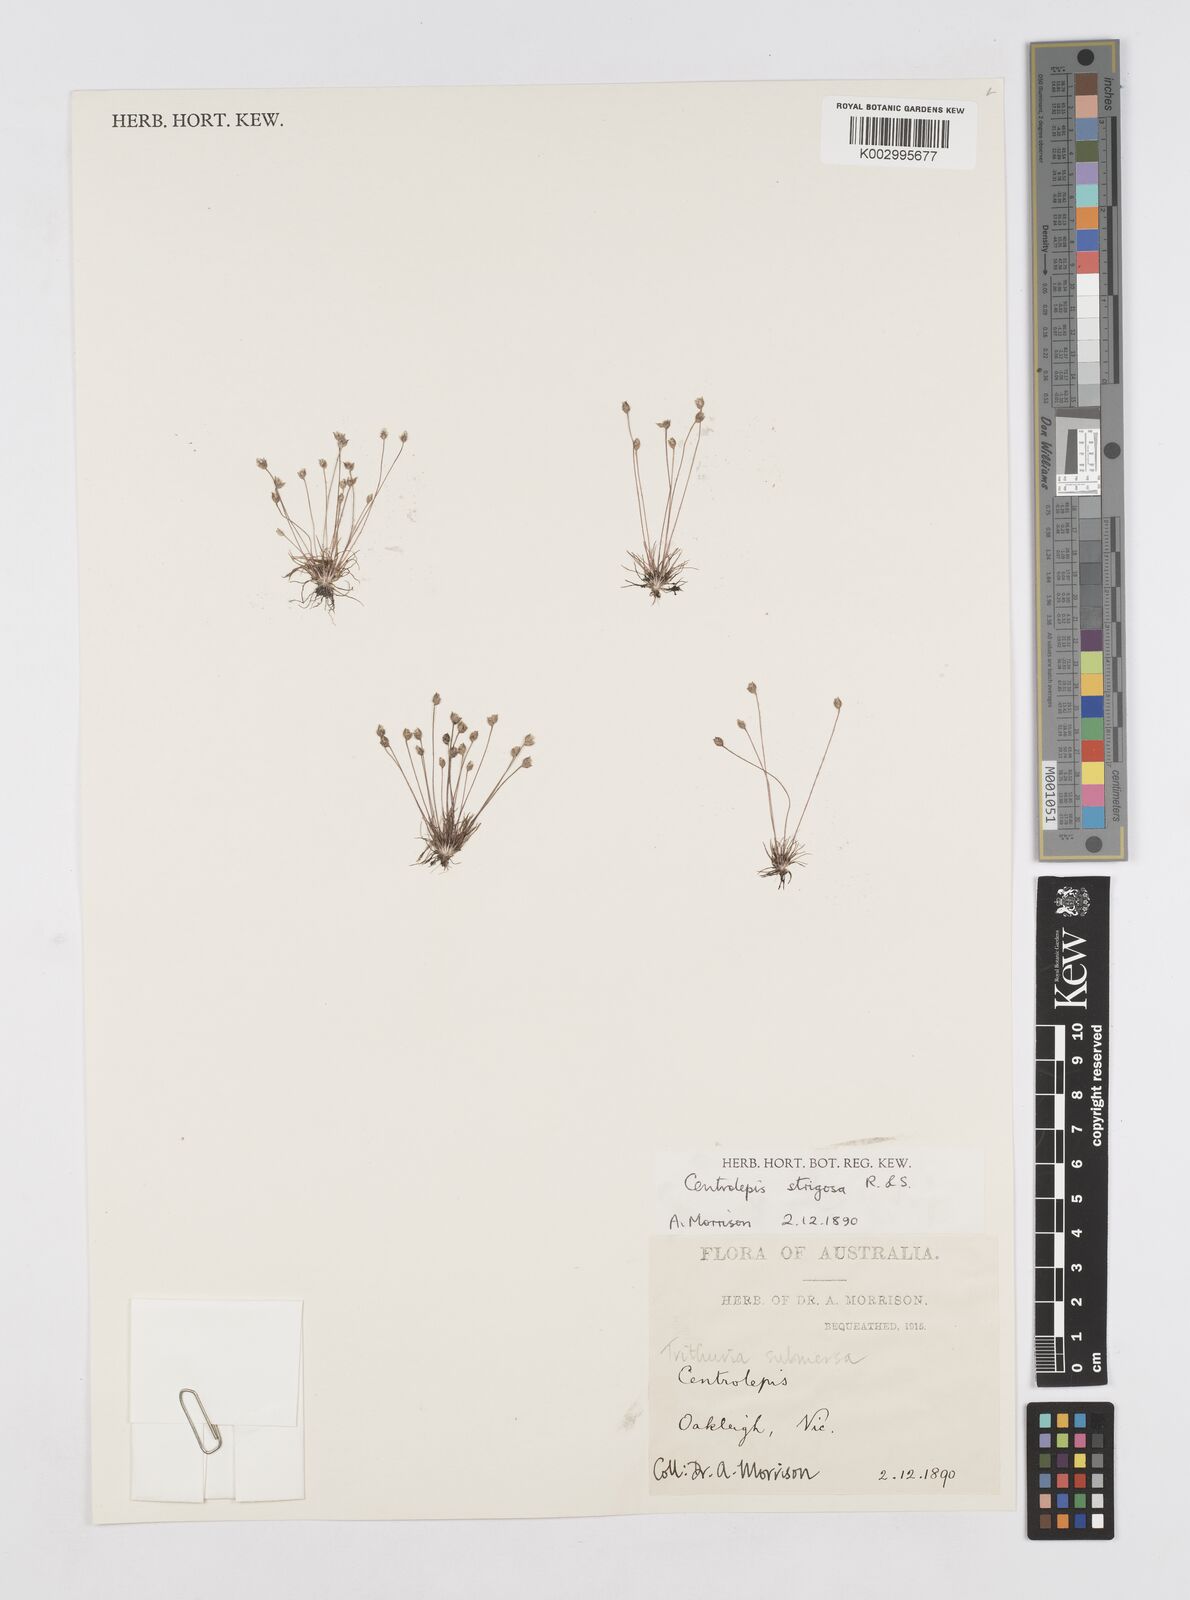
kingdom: Plantae
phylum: Tracheophyta
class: Liliopsida
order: Poales
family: Restionaceae
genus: Centrolepis
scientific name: Centrolepis strigosa
